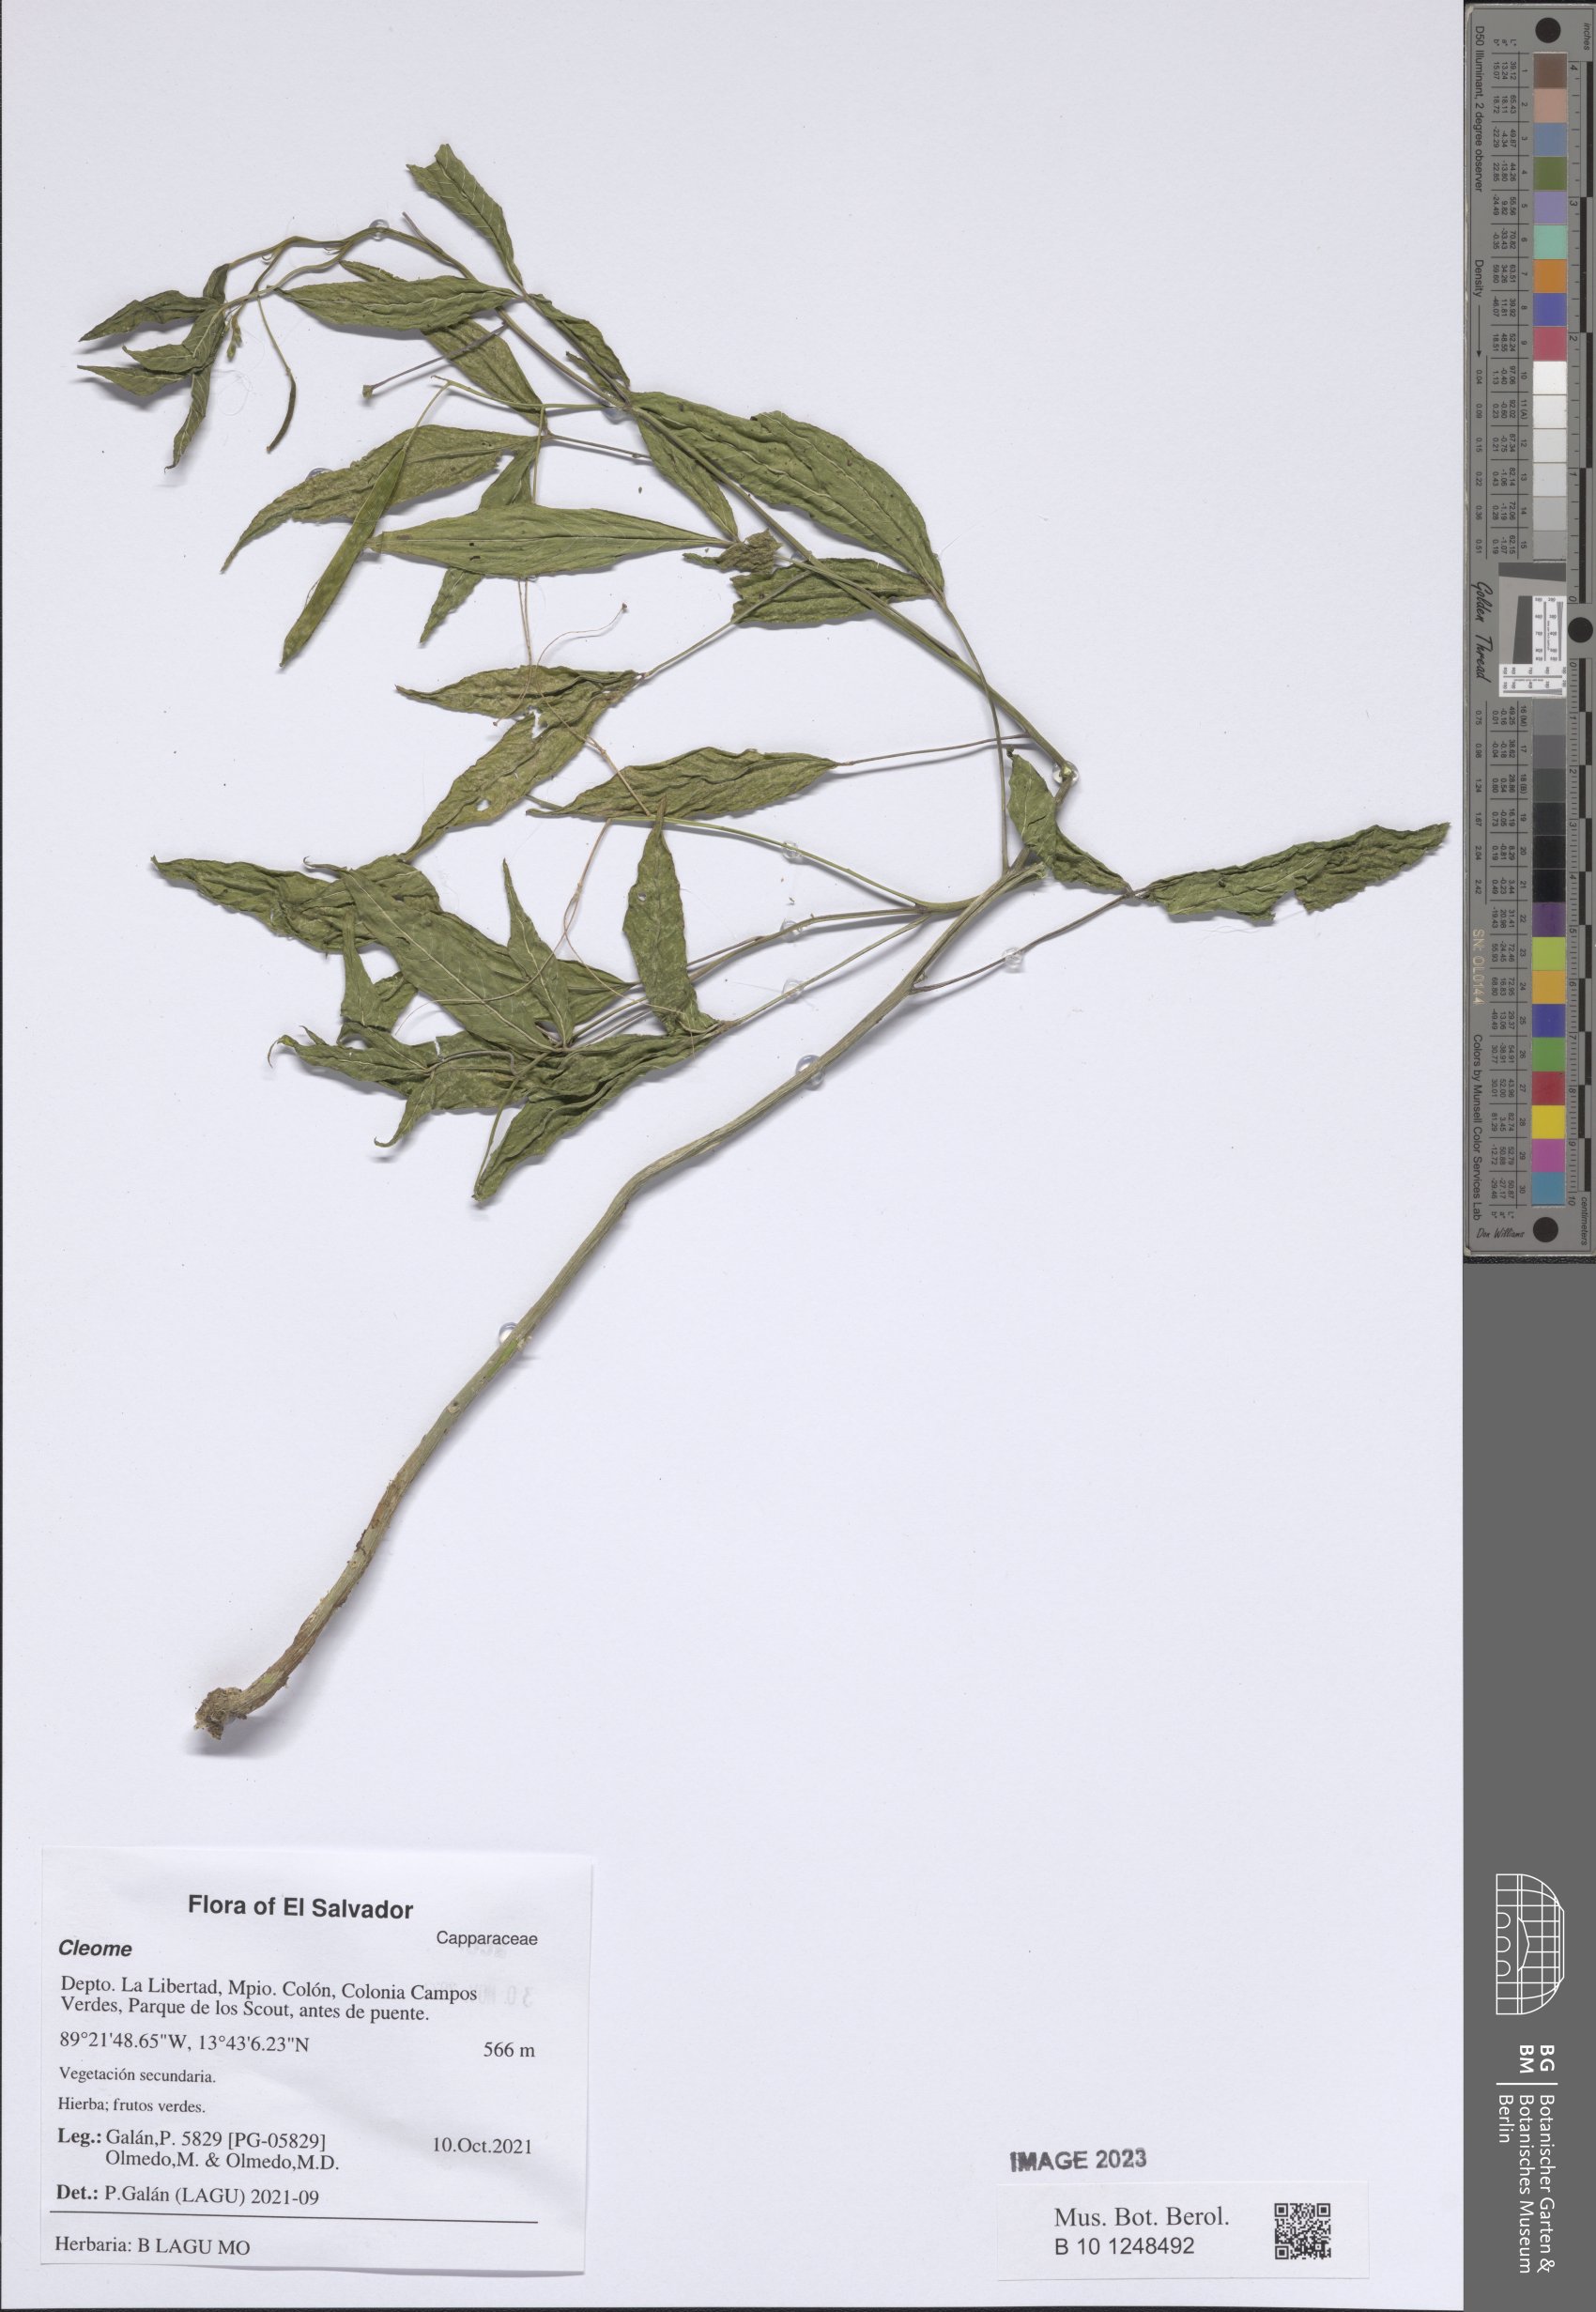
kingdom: Plantae
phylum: Tracheophyta
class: Magnoliopsida
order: Brassicales
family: Cleomaceae
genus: Cleome
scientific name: Cleome
